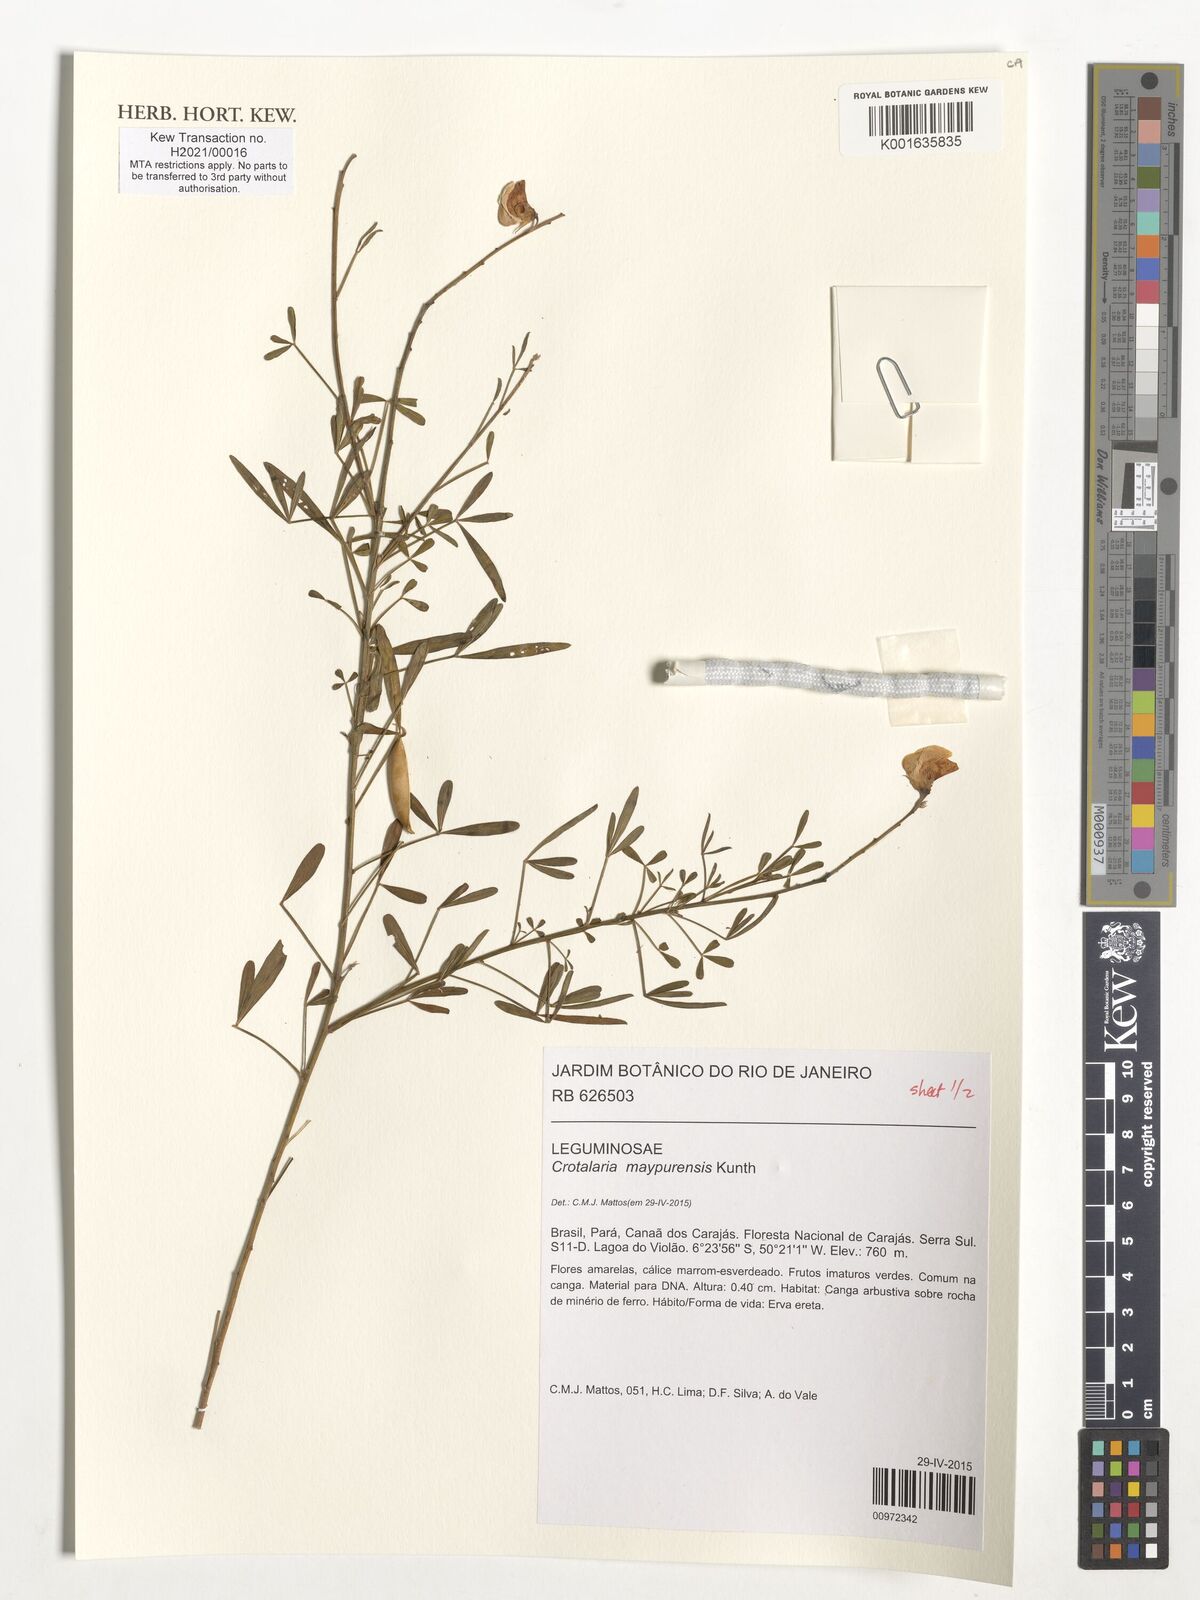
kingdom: Plantae
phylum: Tracheophyta
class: Magnoliopsida
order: Fabales
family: Fabaceae
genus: Crotalaria
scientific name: Crotalaria maypurensis
